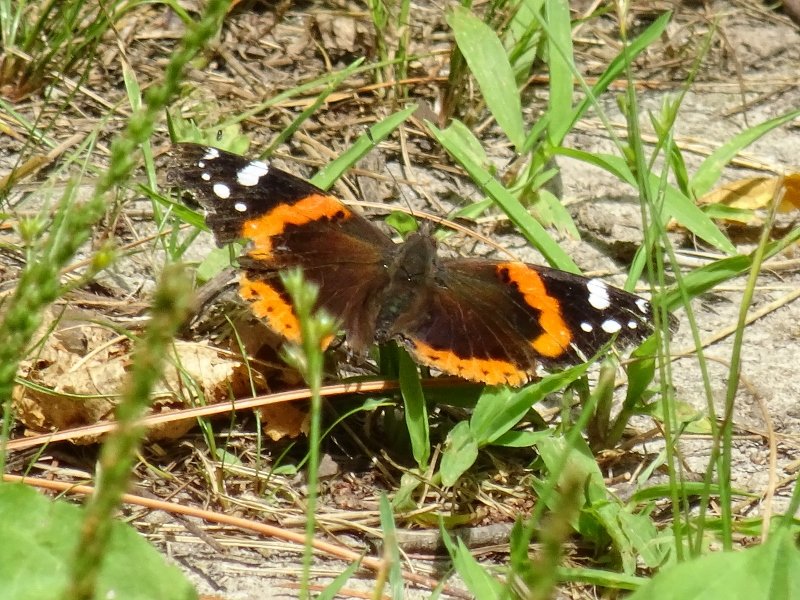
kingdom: Animalia
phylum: Arthropoda
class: Insecta
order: Lepidoptera
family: Nymphalidae
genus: Vanessa
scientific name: Vanessa atalanta
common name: Red Admiral
